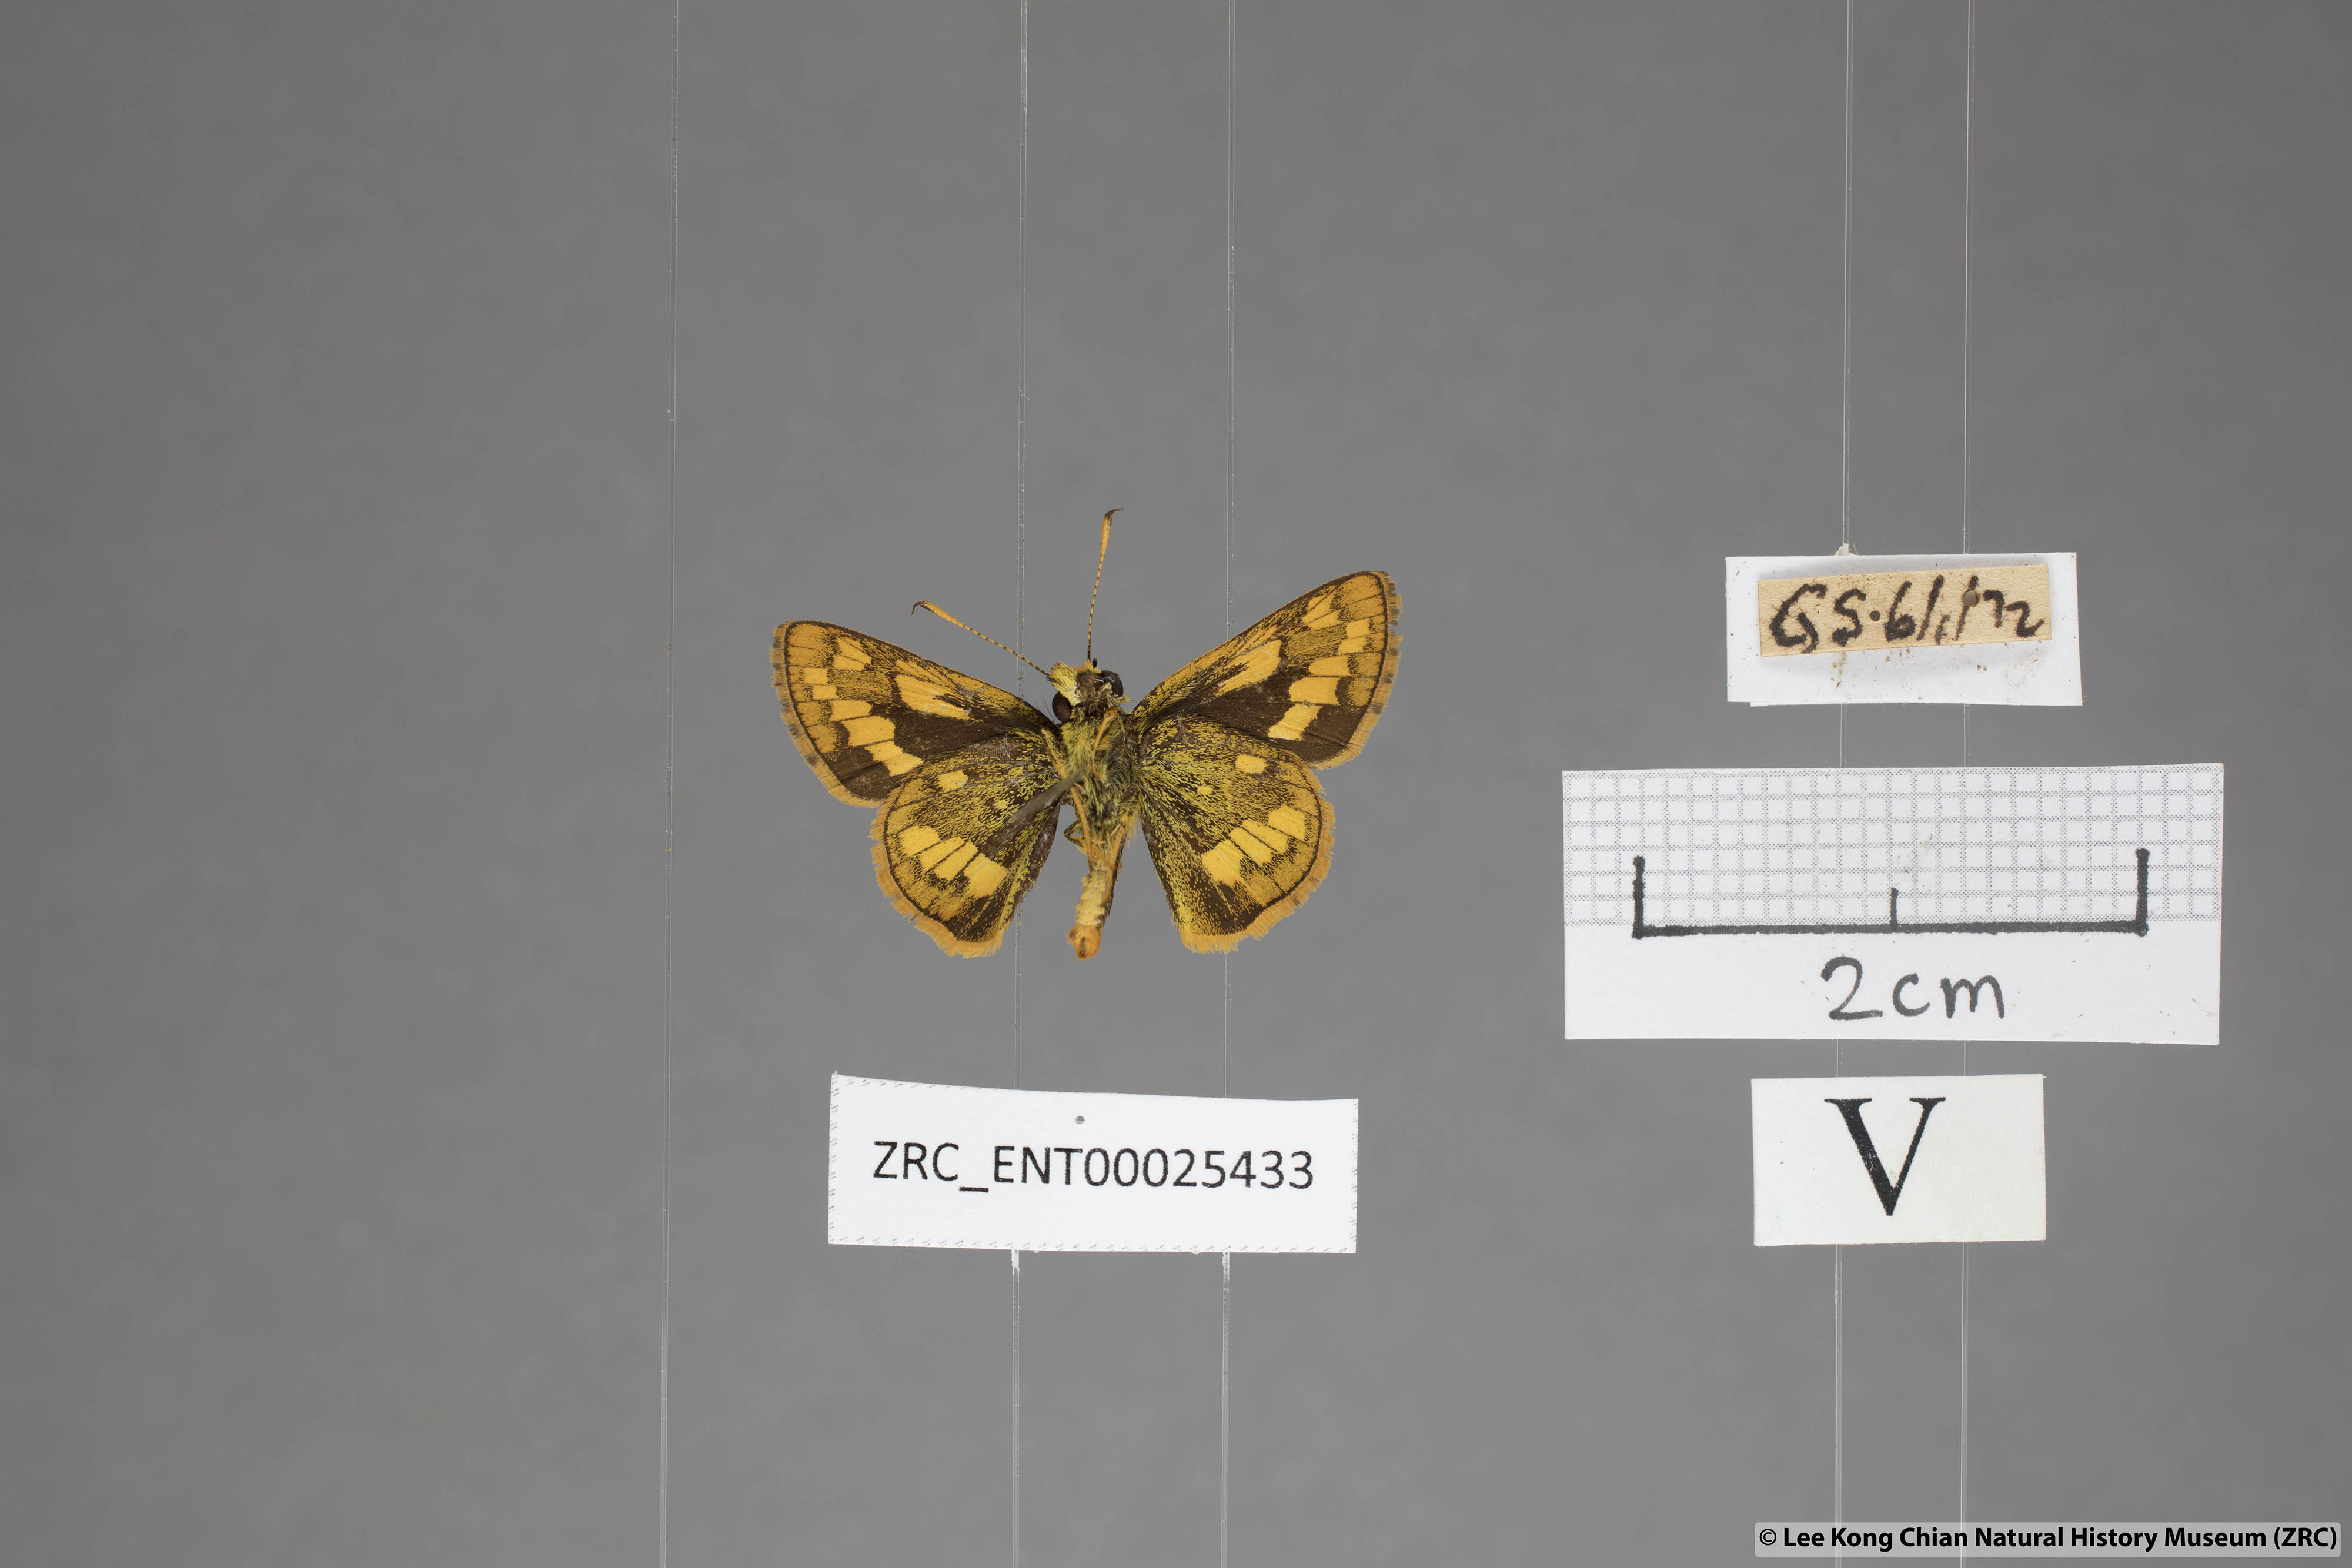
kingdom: Animalia
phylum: Arthropoda
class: Insecta
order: Lepidoptera
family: Hesperiidae
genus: Potanthus
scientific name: Potanthus omaha
